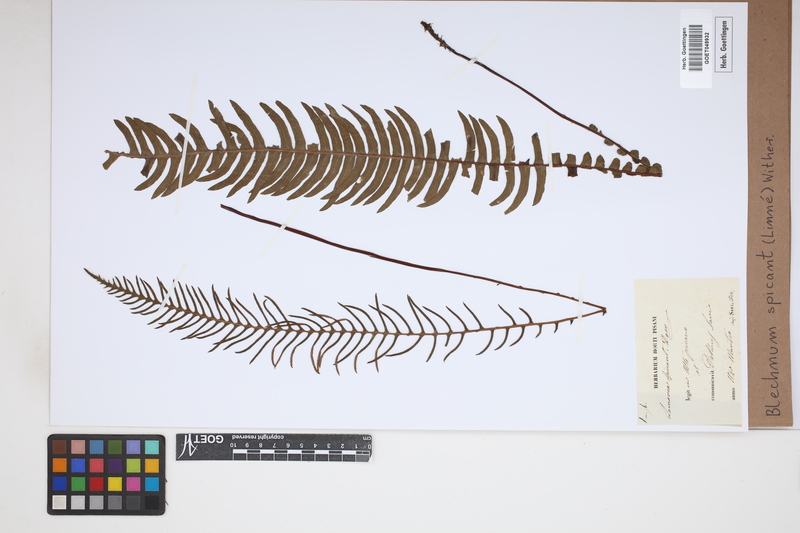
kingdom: Plantae
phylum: Tracheophyta
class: Polypodiopsida
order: Polypodiales
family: Blechnaceae
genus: Struthiopteris
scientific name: Struthiopteris spicant
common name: Deer fern
